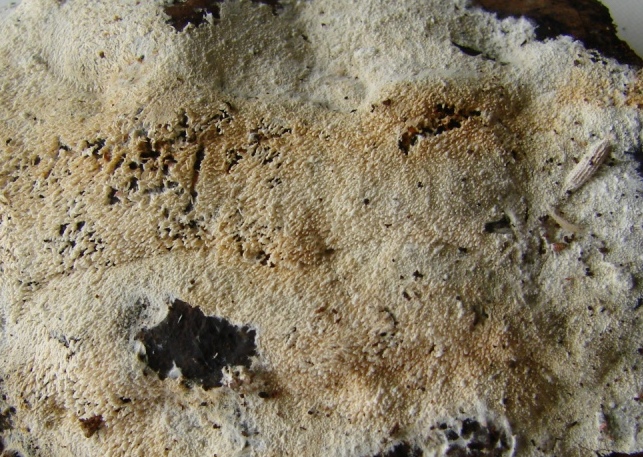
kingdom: Fungi
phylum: Basidiomycota
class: Agaricomycetes
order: Trechisporales
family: Sistotremataceae
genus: Trechispora
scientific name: Trechispora nivea
